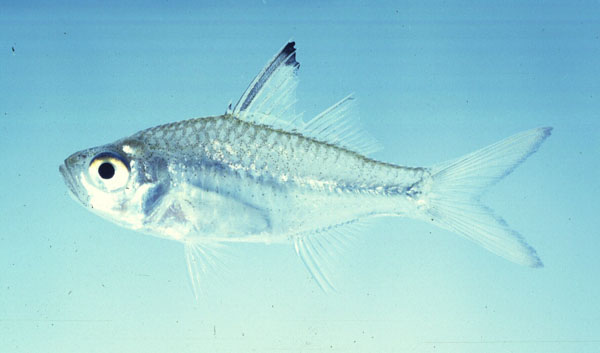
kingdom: Animalia
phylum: Chordata
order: Perciformes
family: Ambassidae
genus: Ambassis
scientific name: Ambassis natalensis
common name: Slender glassy
